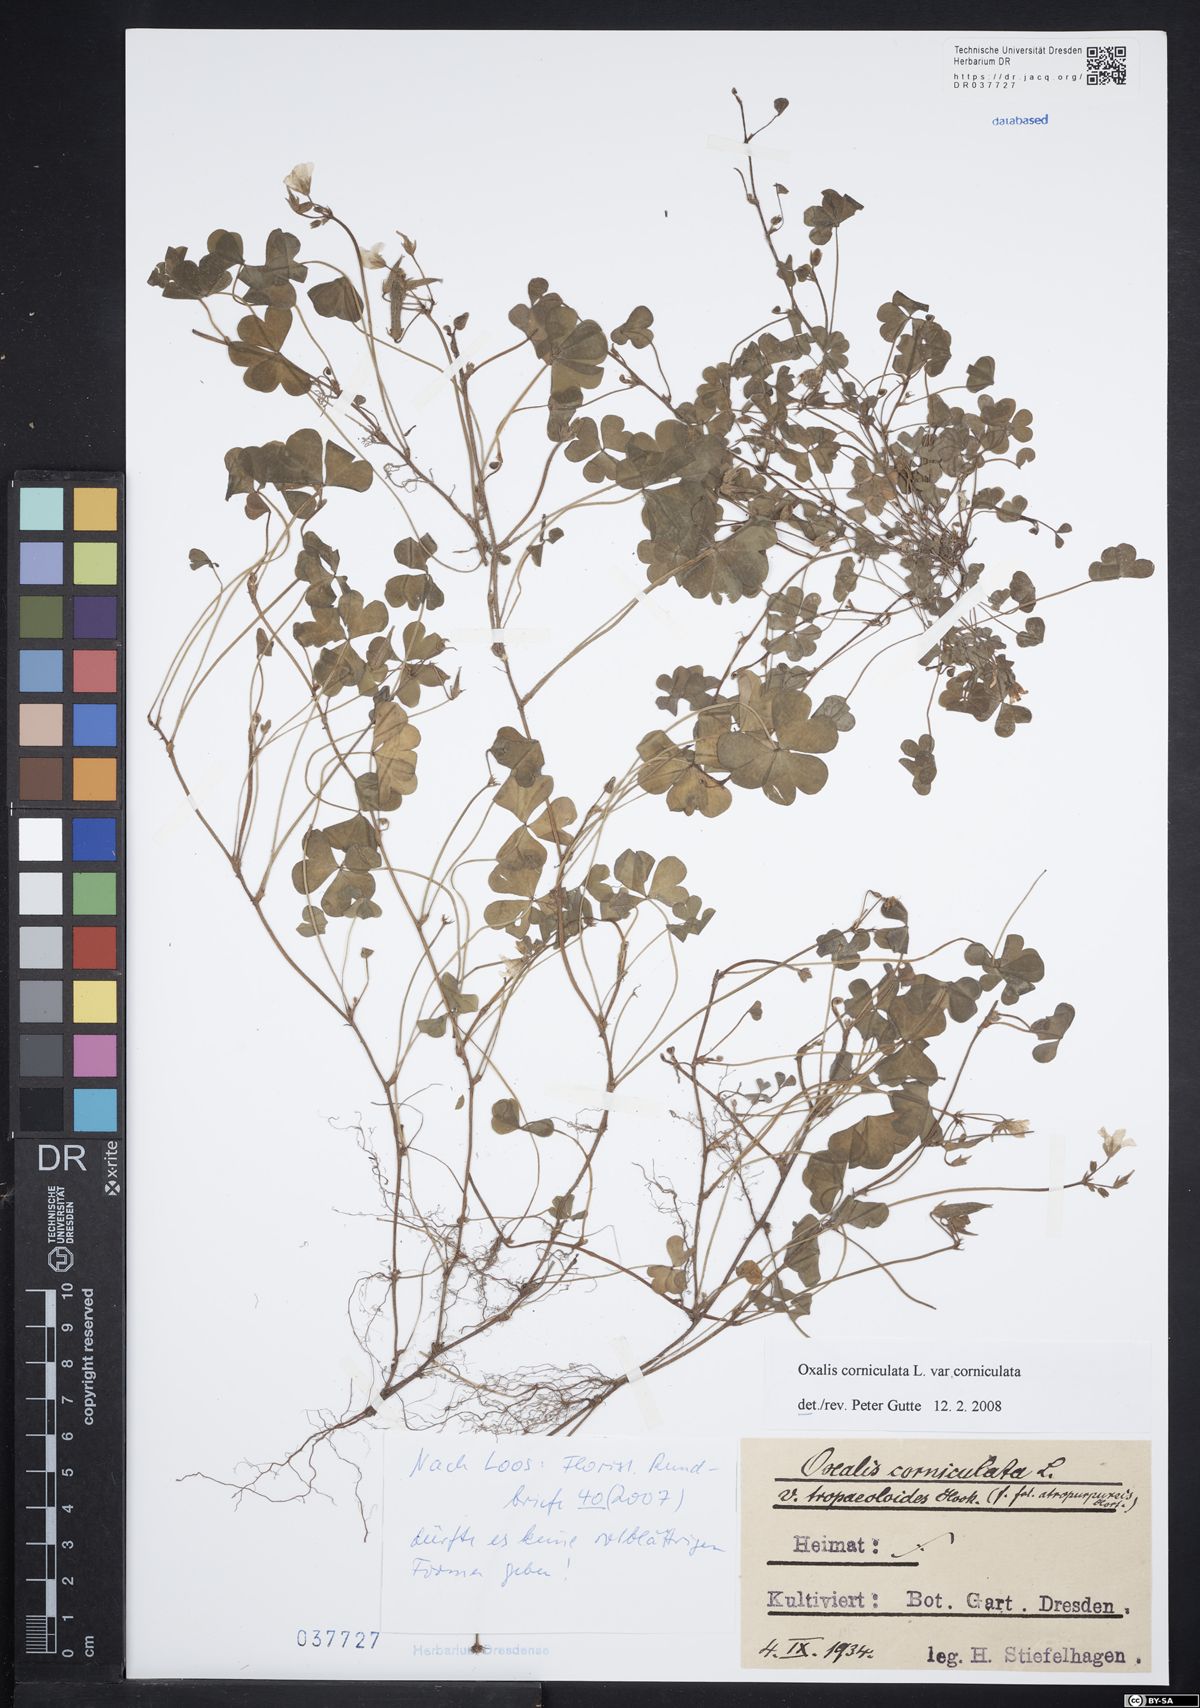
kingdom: Plantae
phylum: Tracheophyta
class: Magnoliopsida
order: Oxalidales
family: Oxalidaceae
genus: Oxalis
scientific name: Oxalis corniculata
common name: Procumbent yellow-sorrel
